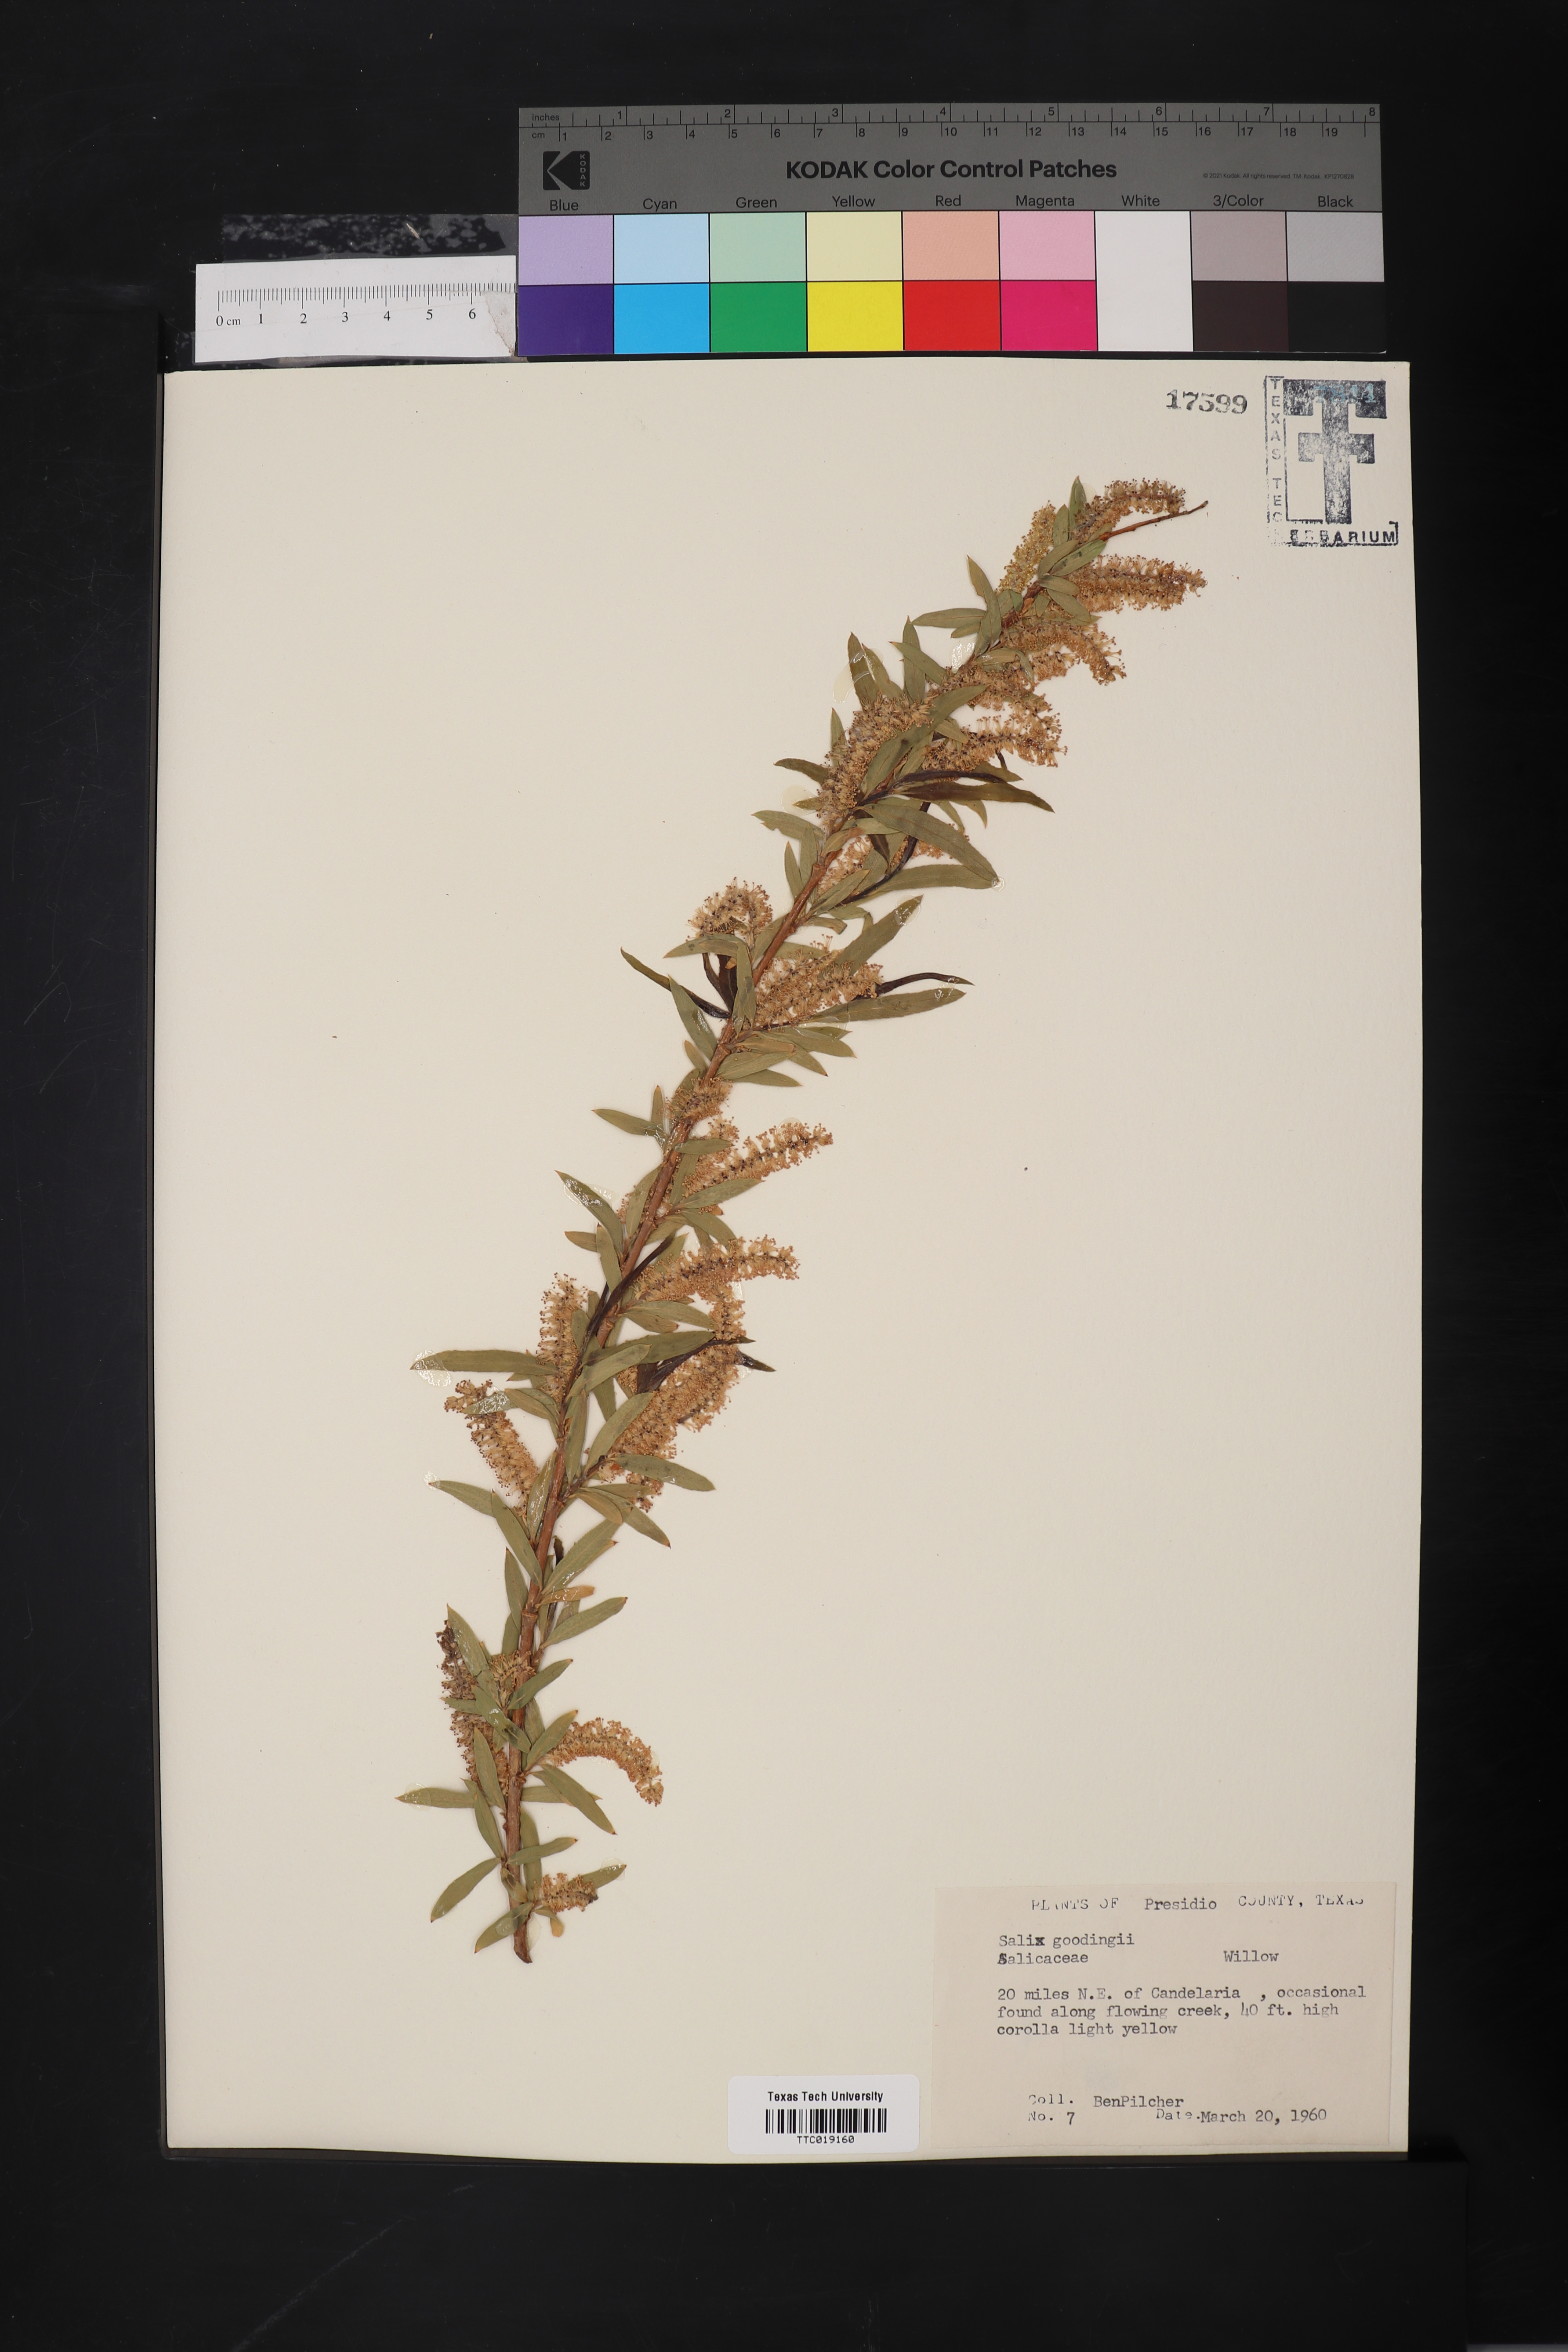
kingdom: Plantae
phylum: Tracheophyta
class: Magnoliopsida
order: Malpighiales
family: Salicaceae
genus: Salix
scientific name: Salix gooddingii
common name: Goodding's willow
